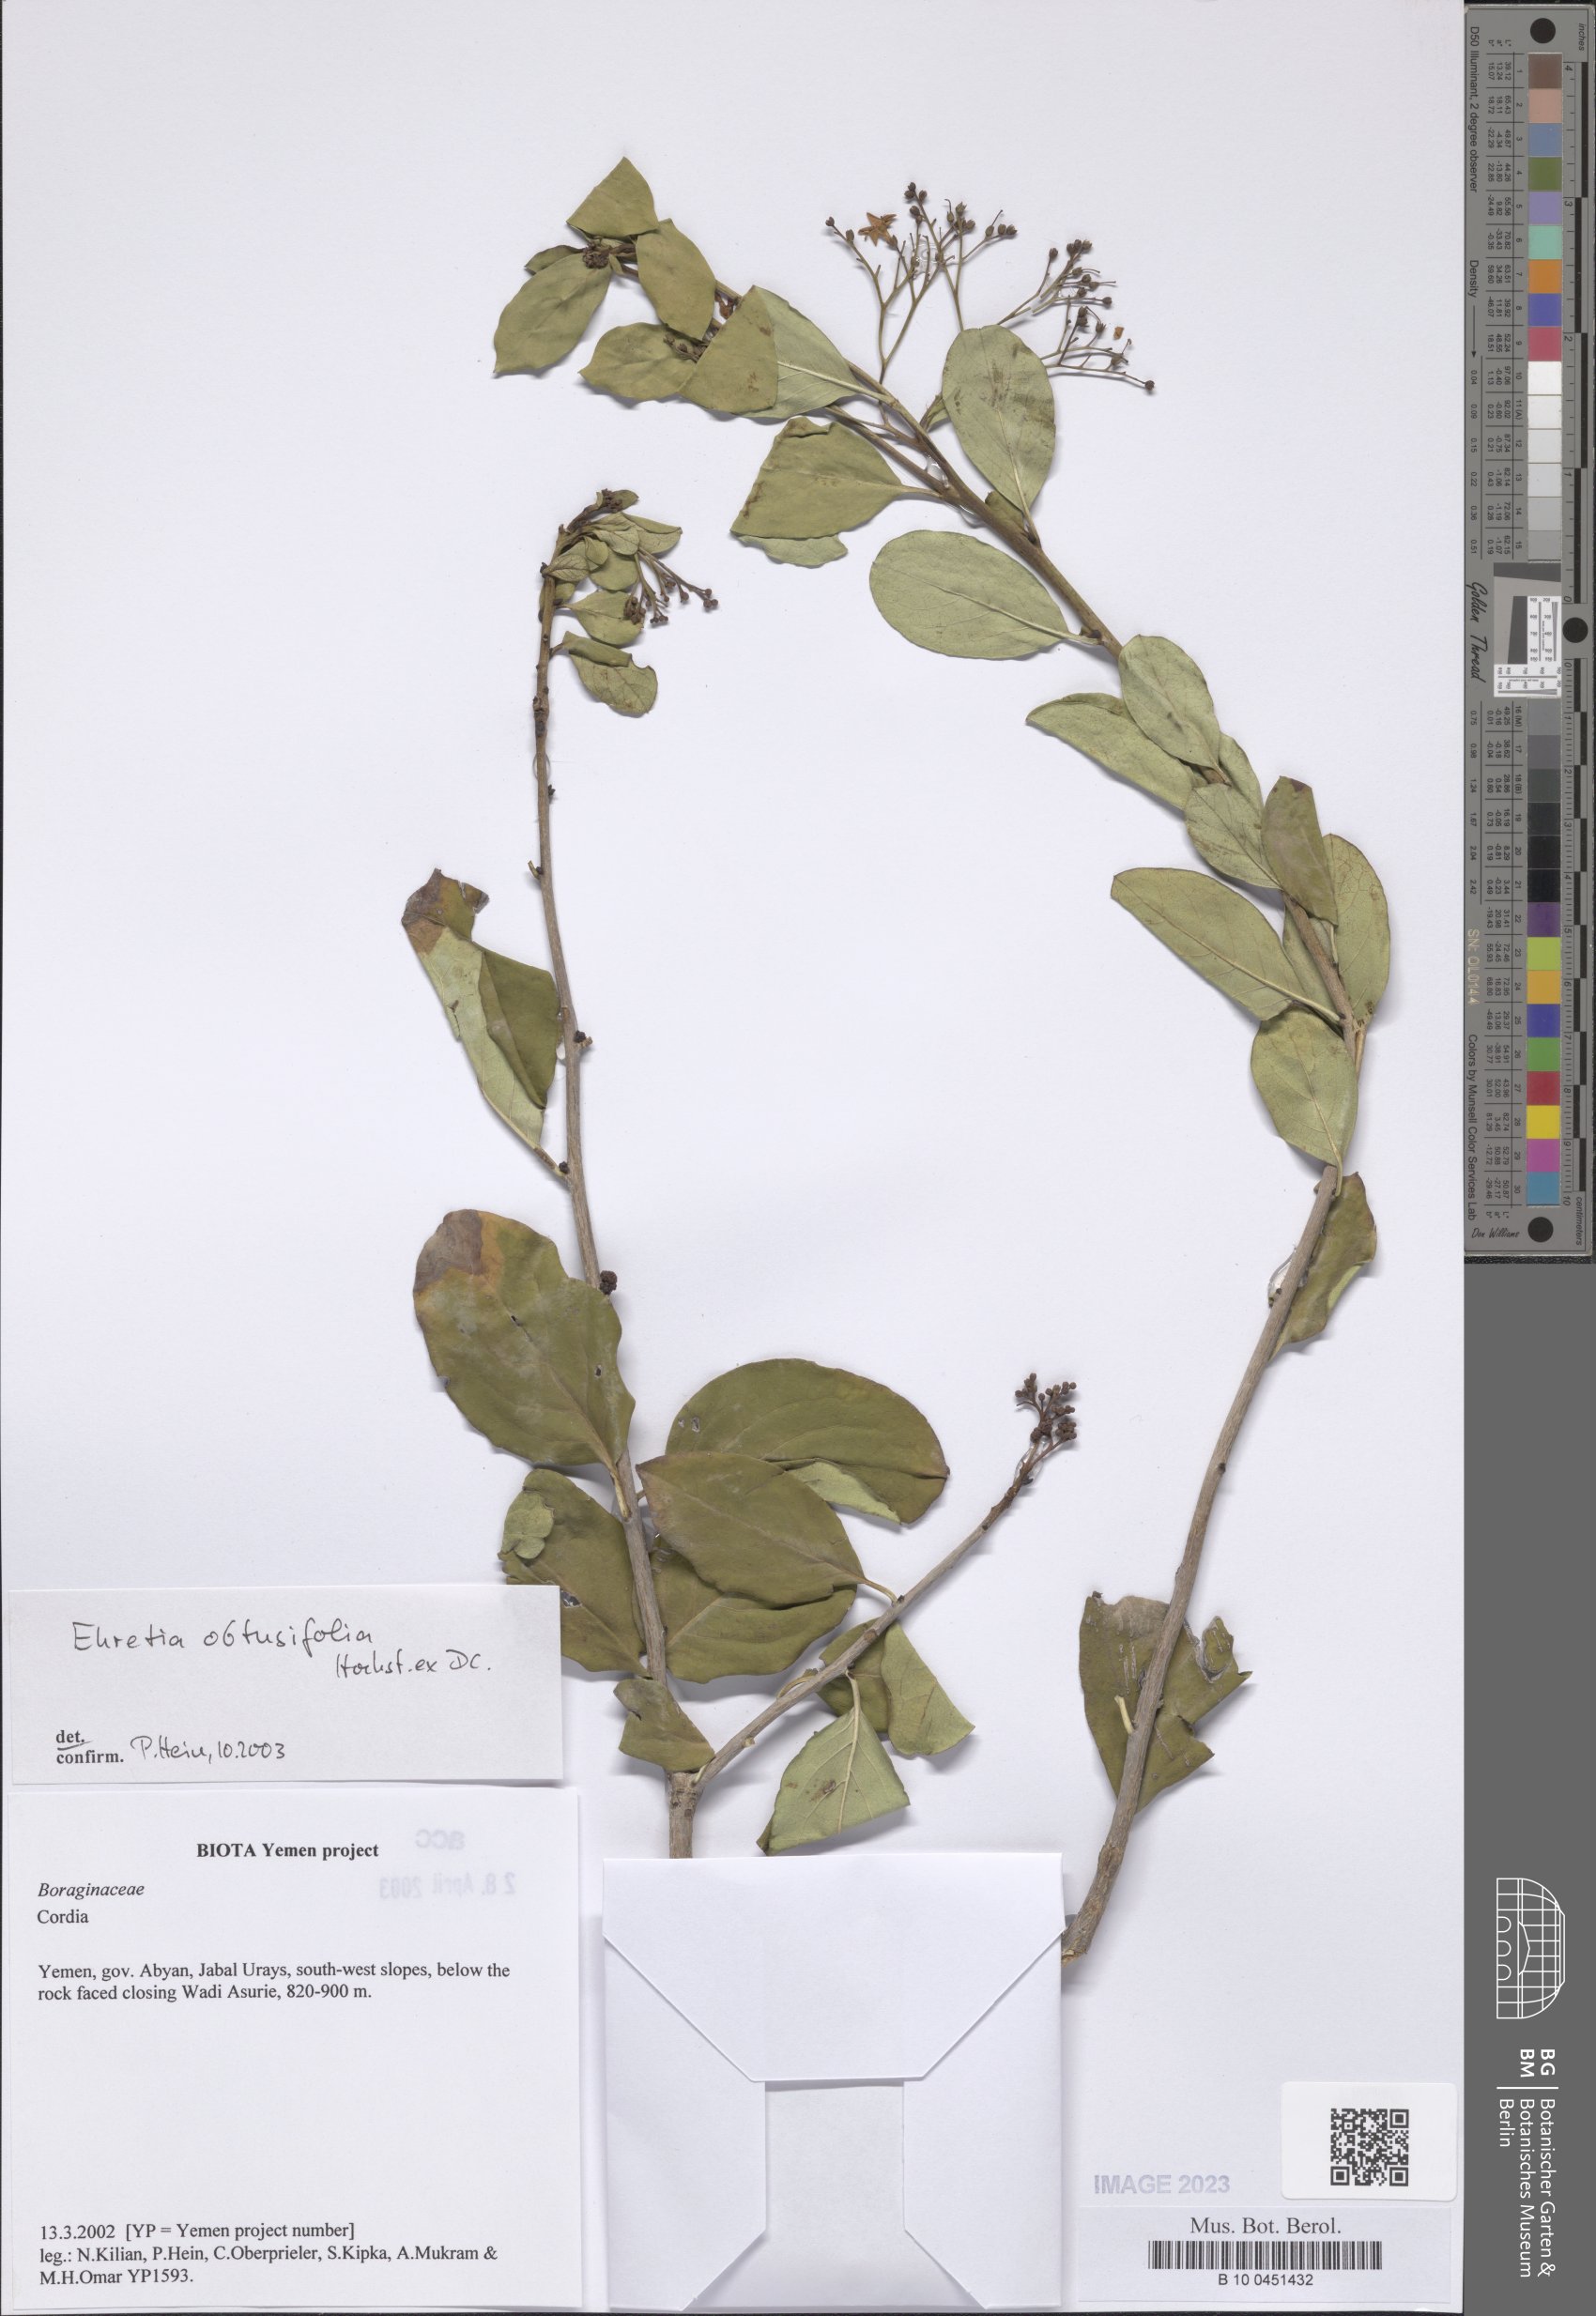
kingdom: Plantae
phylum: Tracheophyta
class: Magnoliopsida
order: Boraginales
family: Ehretiaceae
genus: Ehretia
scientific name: Ehretia obtusifolia
